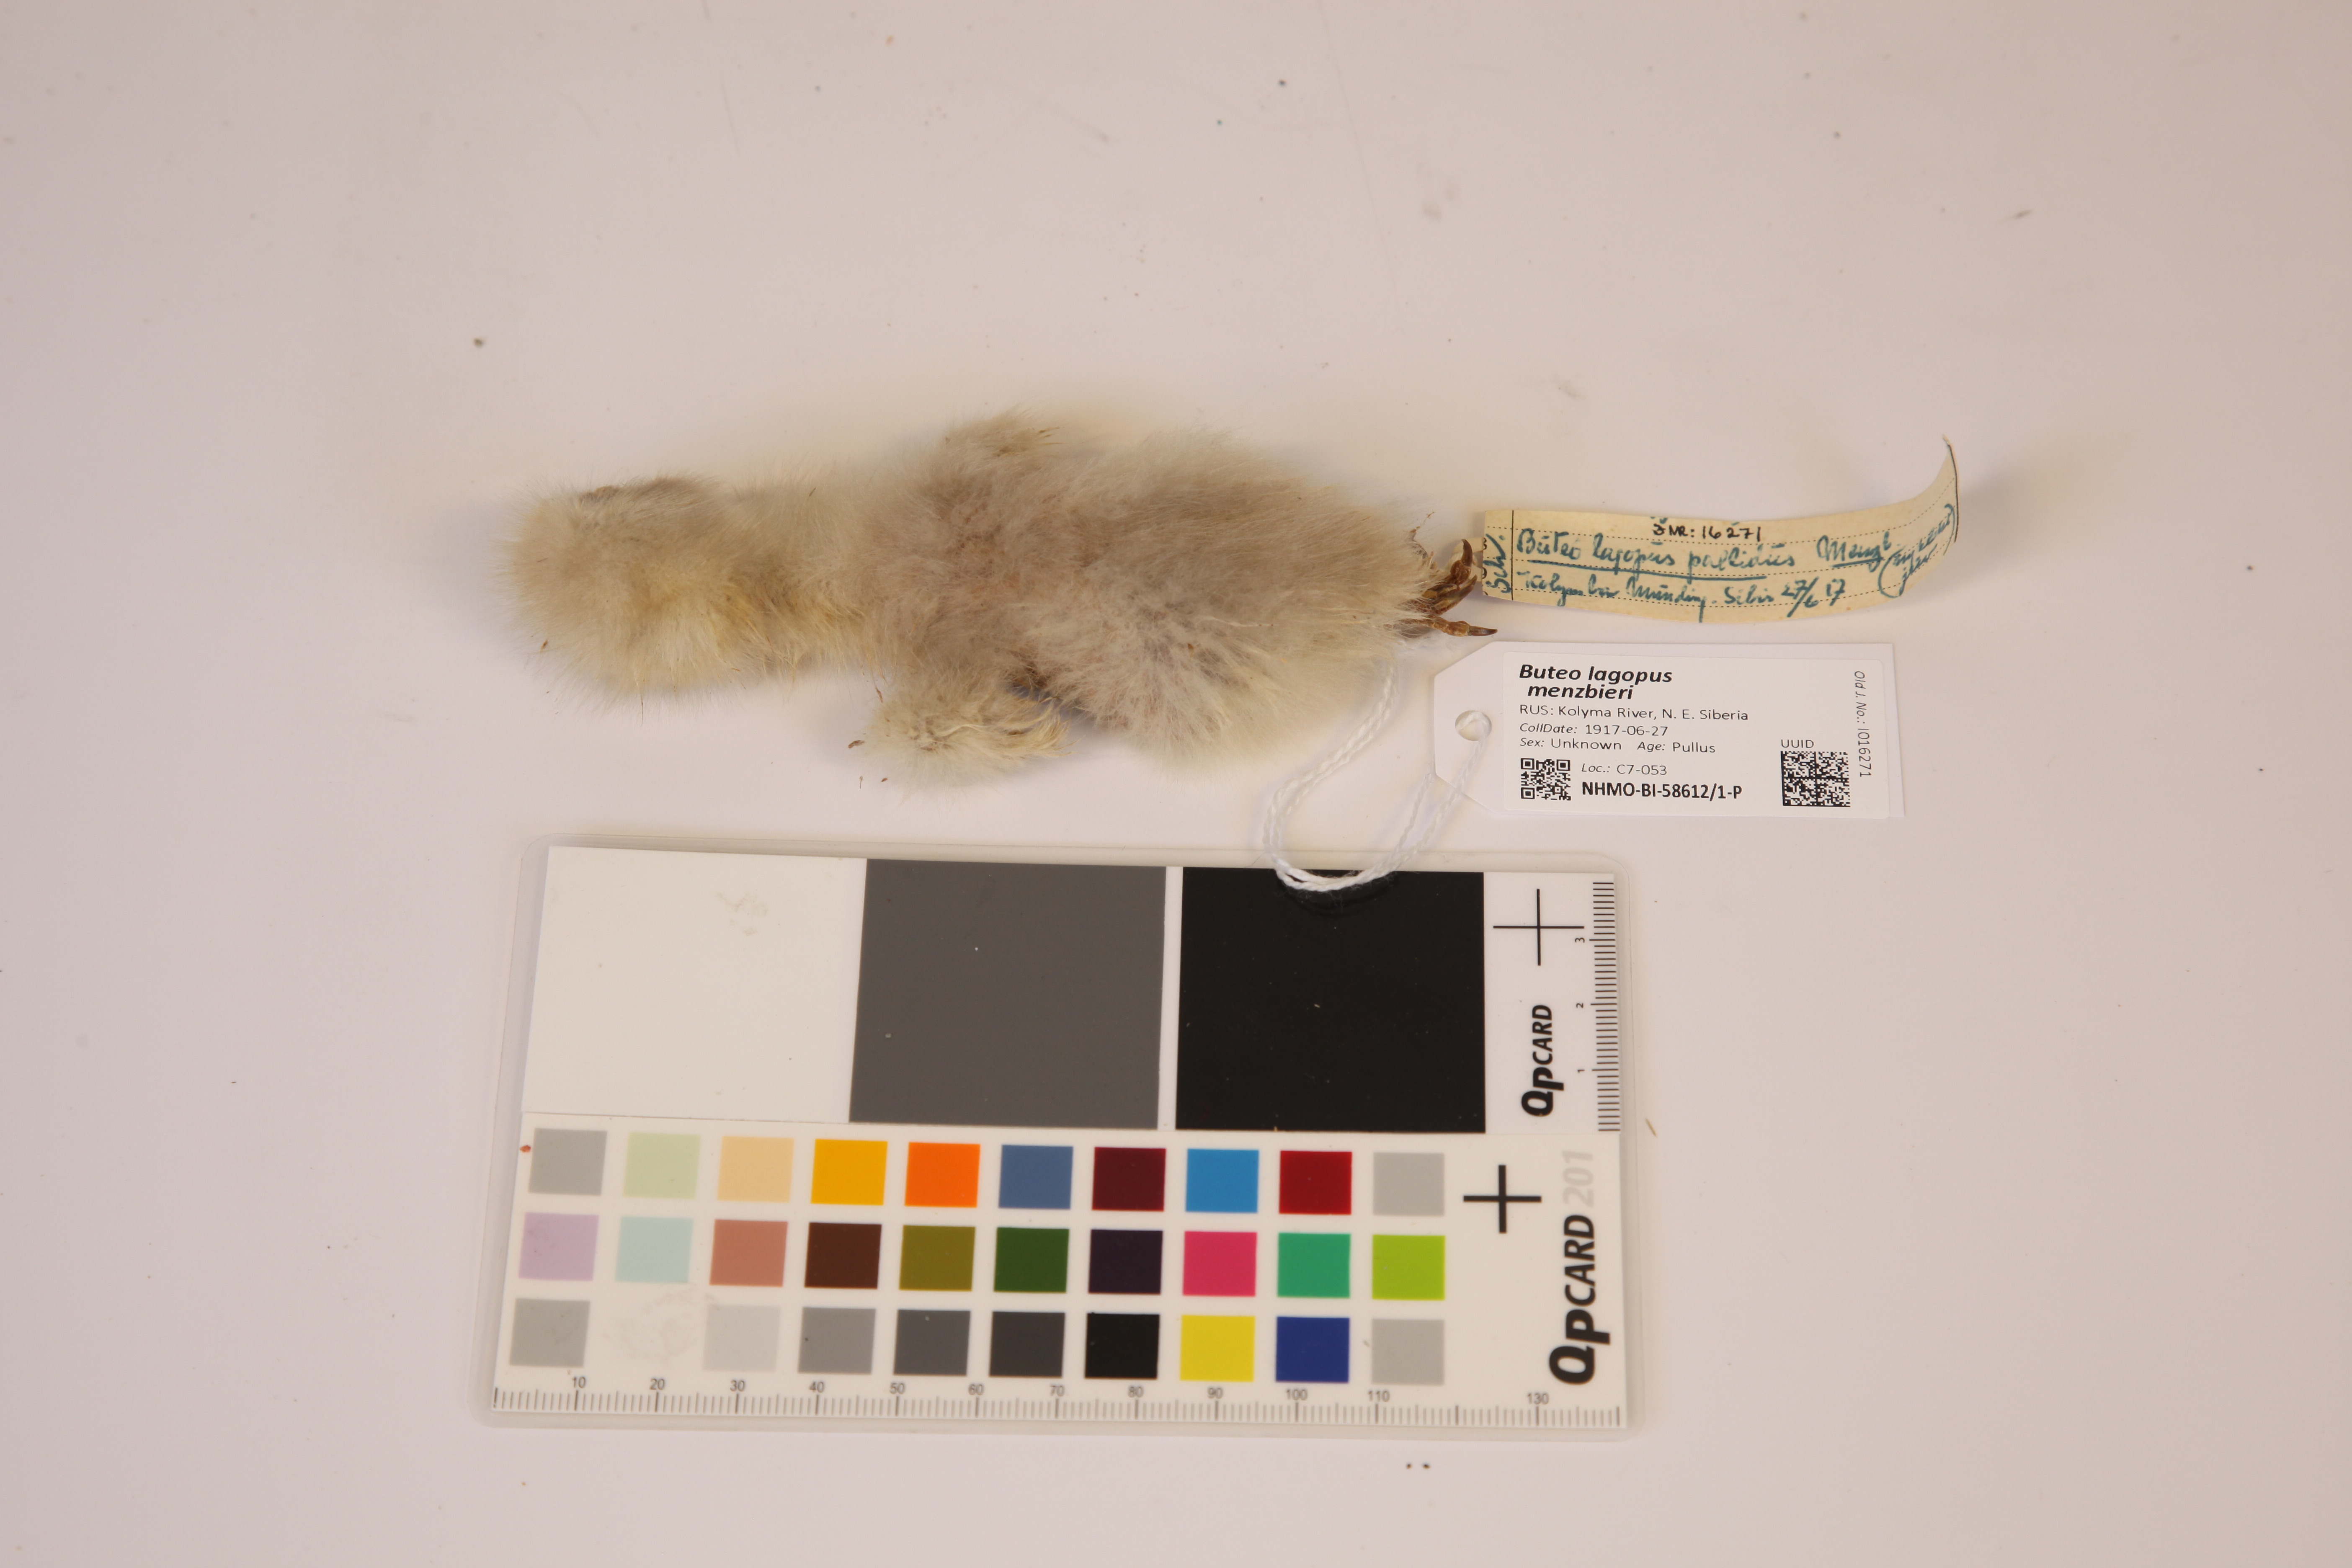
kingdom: Animalia
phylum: Chordata
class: Aves
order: Accipitriformes
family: Accipitridae
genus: Buteo
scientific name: Buteo lagopus
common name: Rough-legged buzzard
